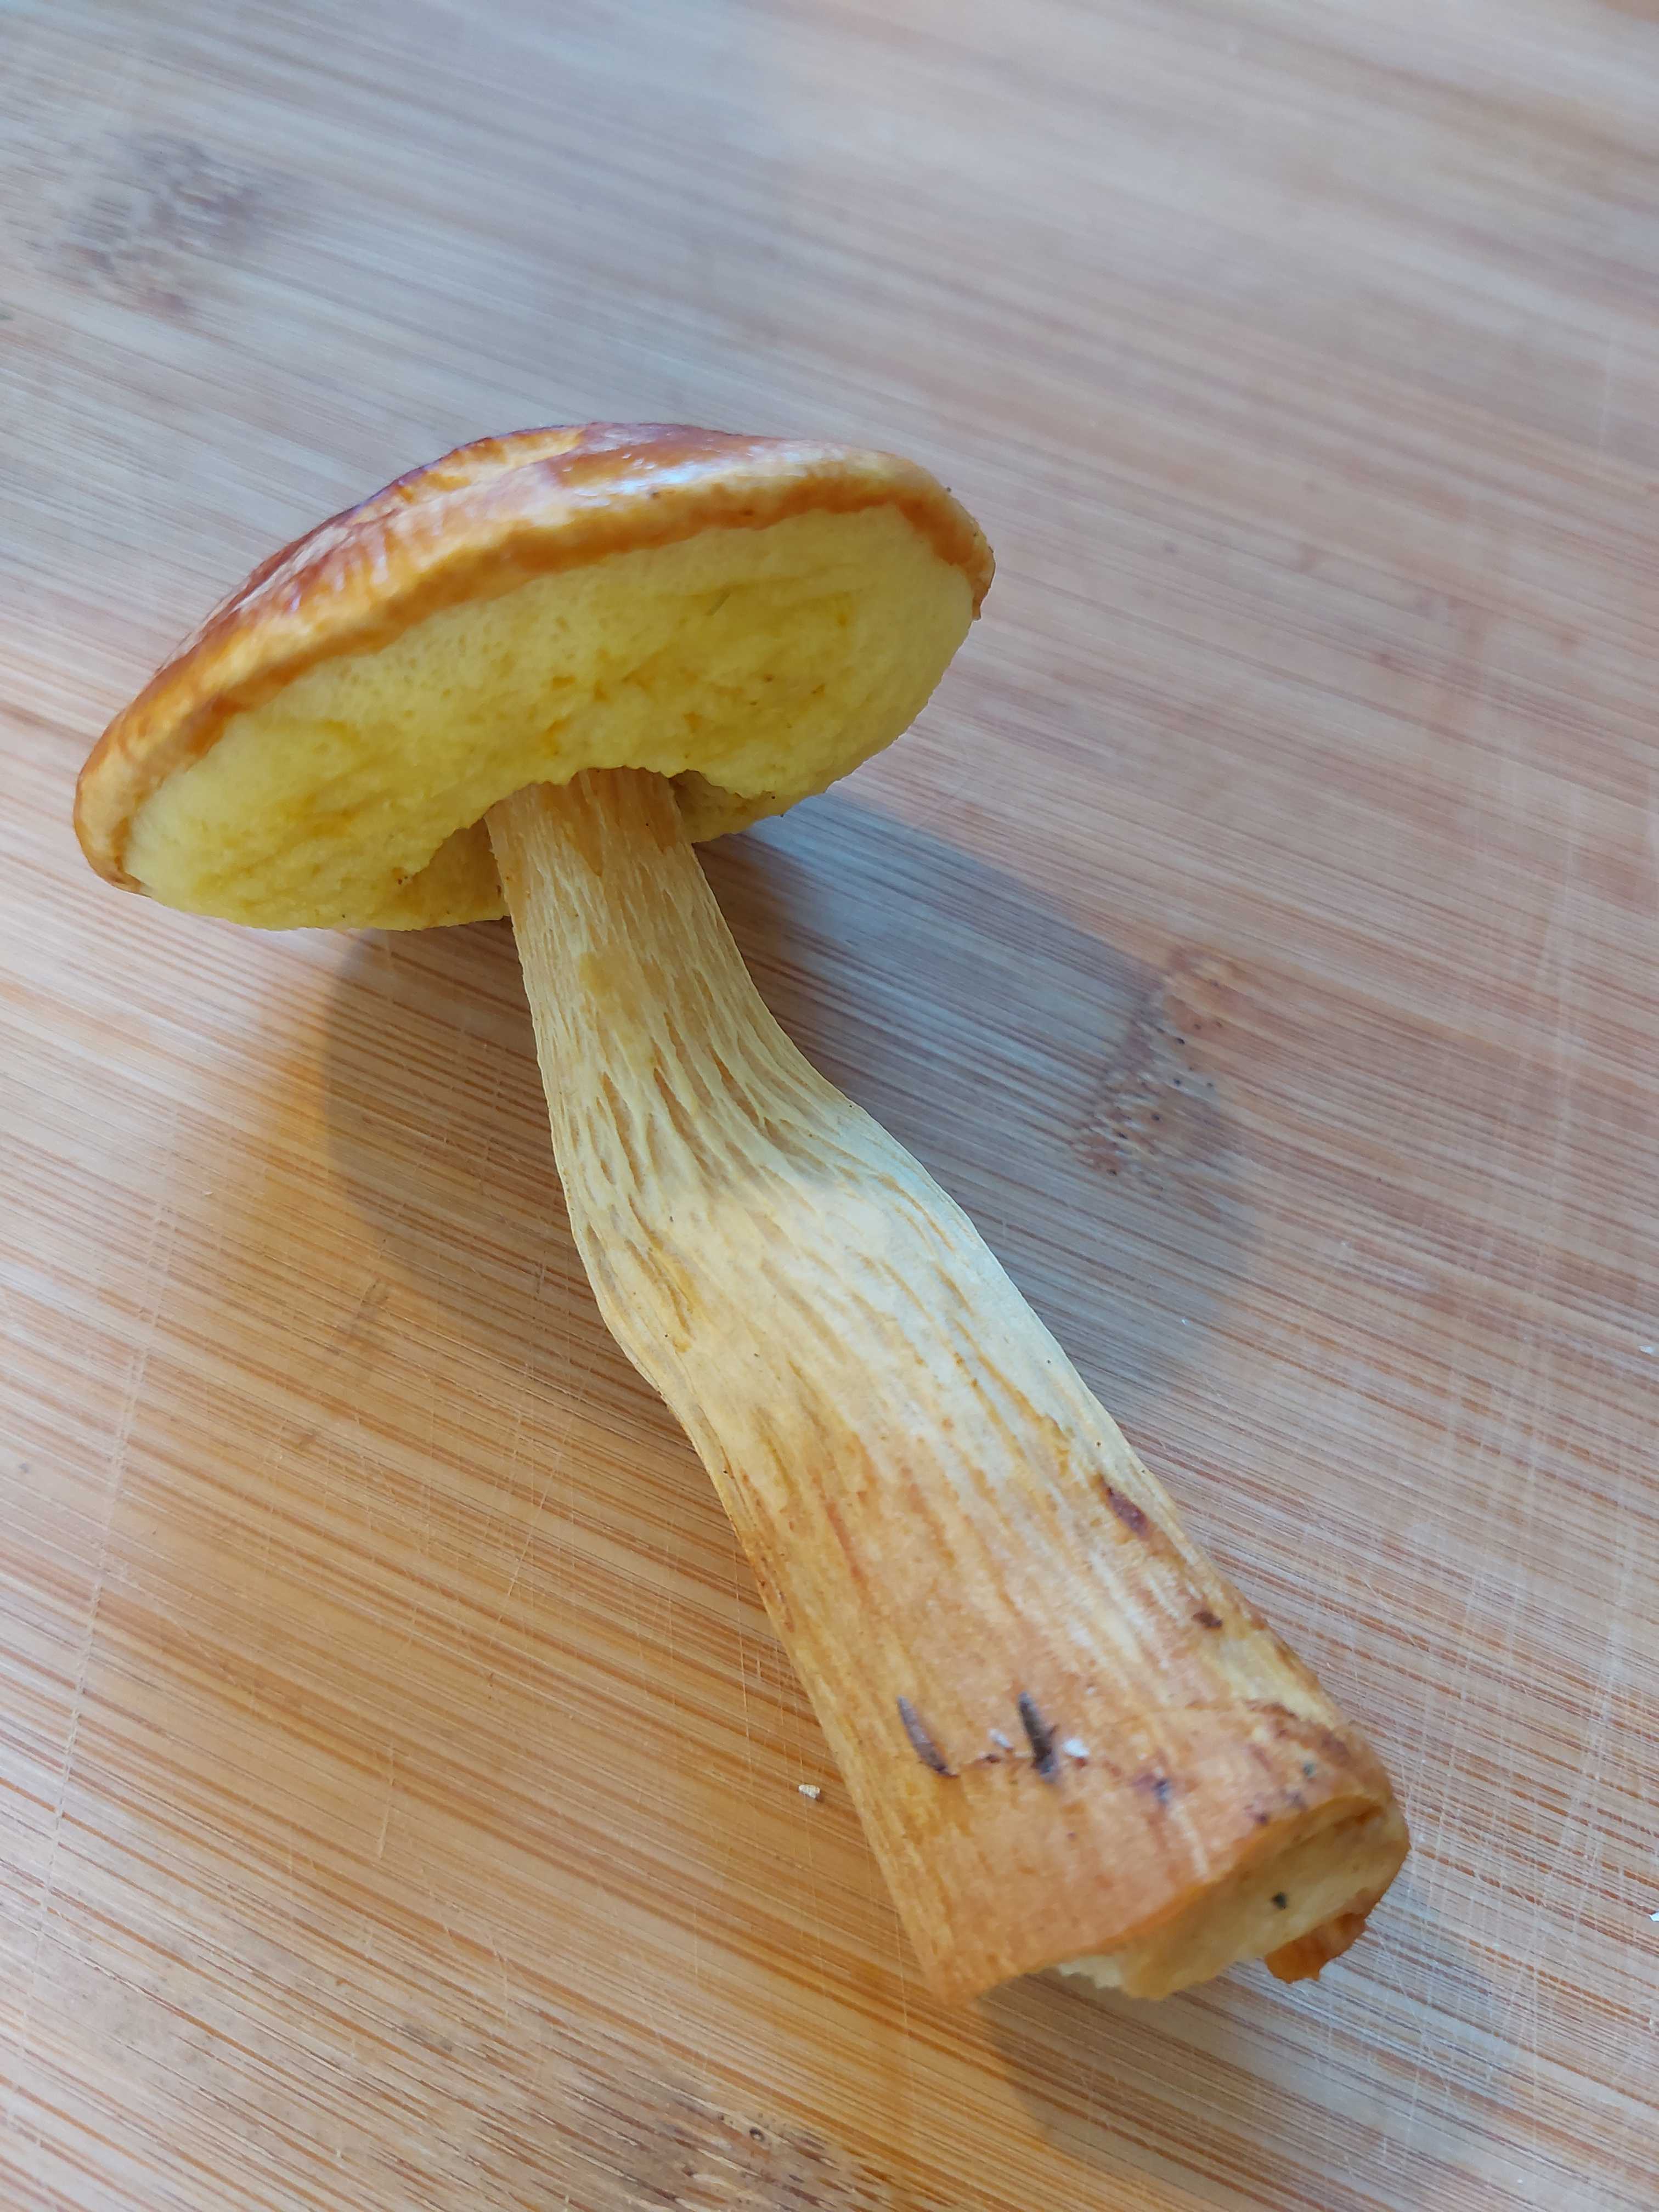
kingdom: Fungi
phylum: Basidiomycota
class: Agaricomycetes
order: Boletales
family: Boletaceae
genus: Aureoboletus
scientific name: Aureoboletus projectellus
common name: ribbestokket rørhat
